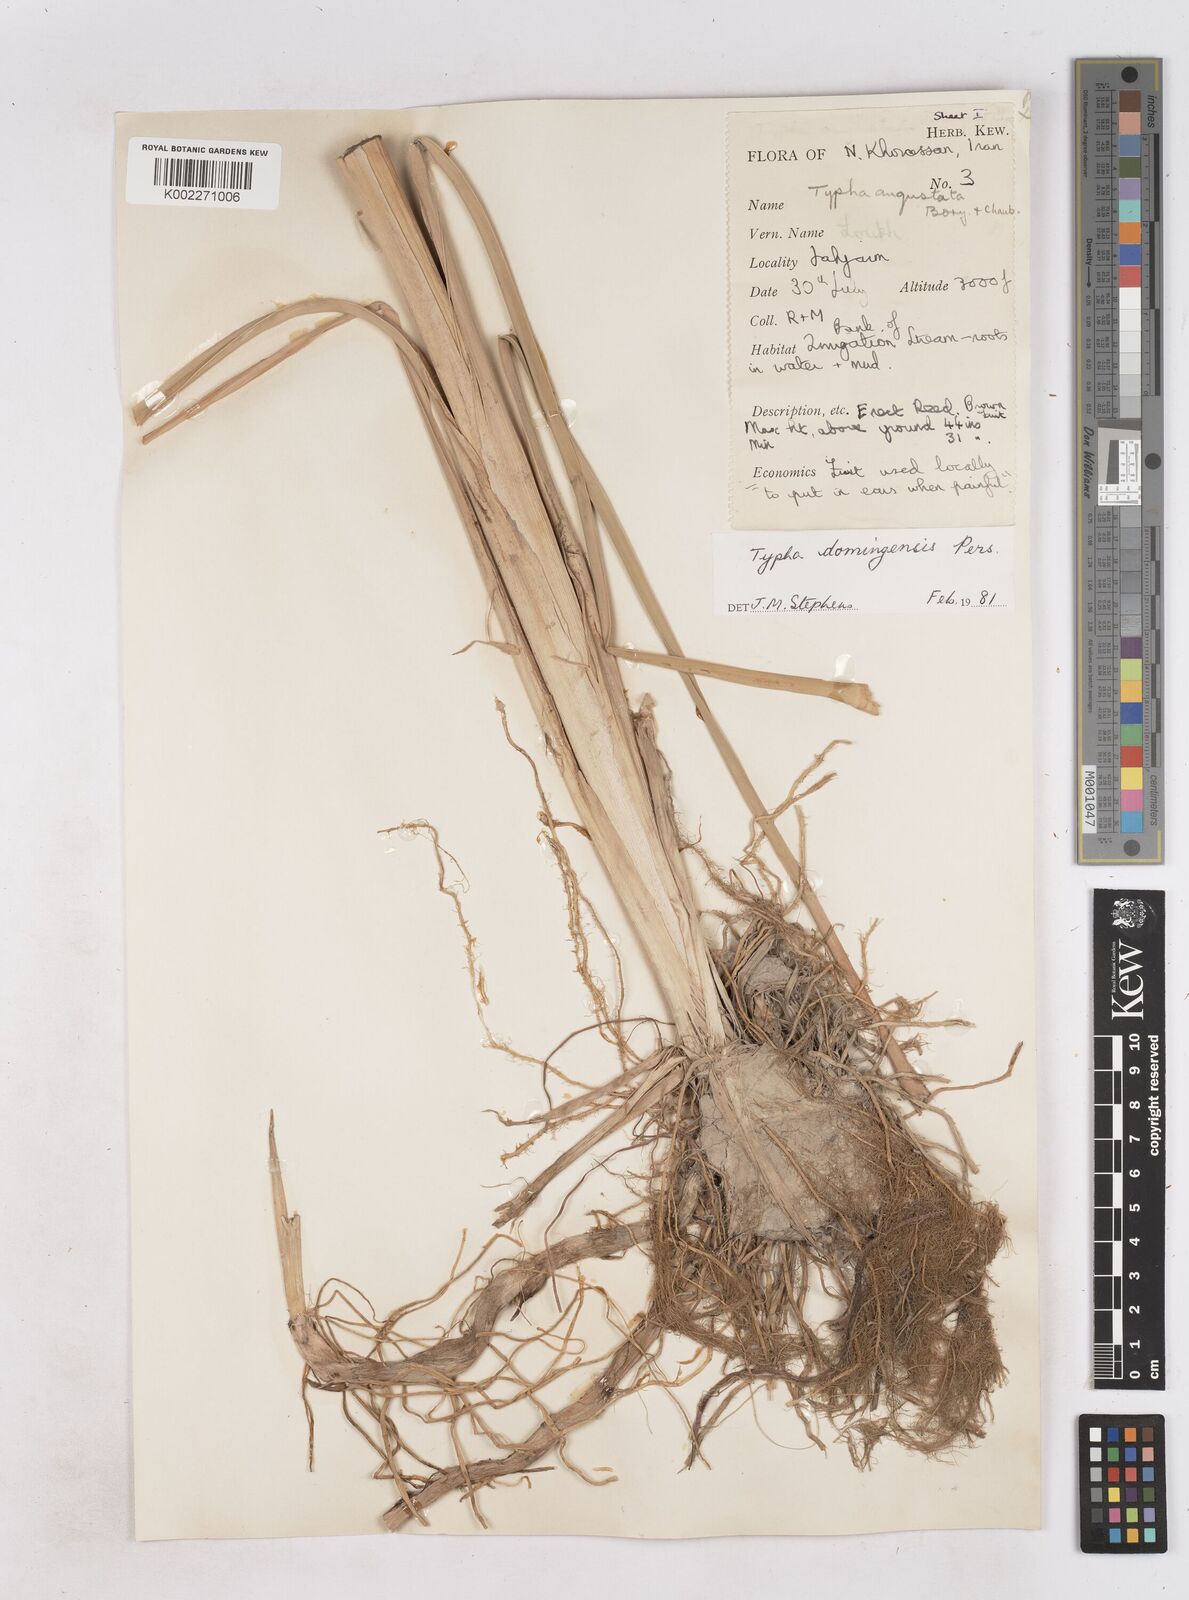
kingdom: Plantae
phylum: Tracheophyta
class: Liliopsida
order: Poales
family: Typhaceae
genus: Typha
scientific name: Typha domingensis
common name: Southern cattail
